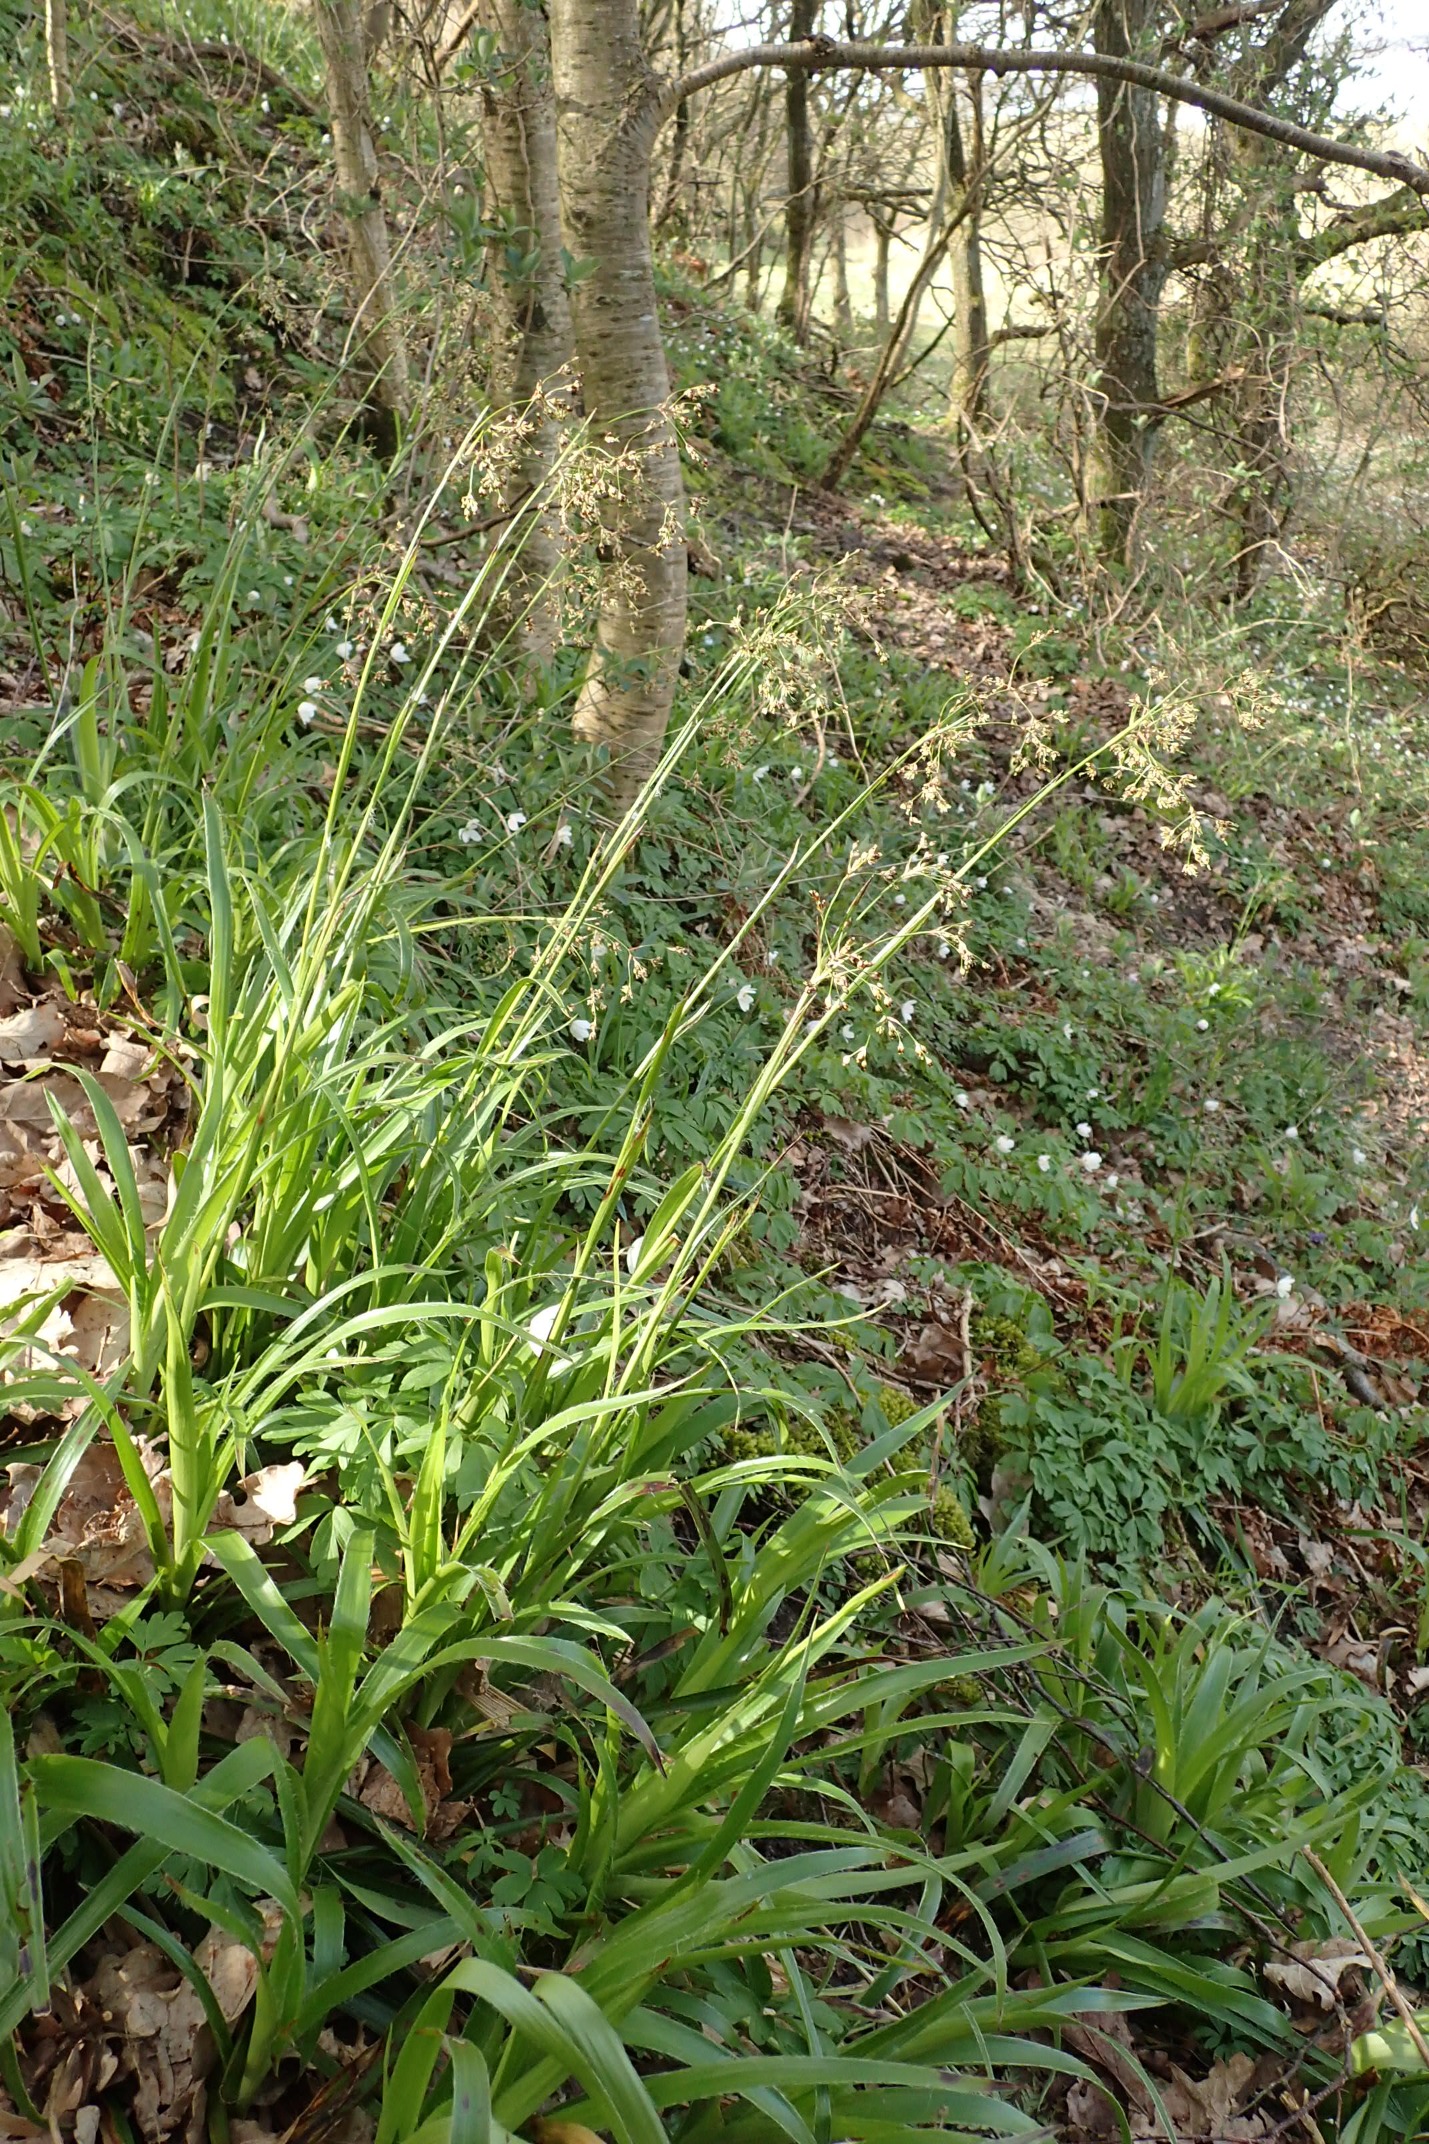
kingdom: Plantae
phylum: Tracheophyta
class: Liliopsida
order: Poales
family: Juncaceae
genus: Luzula
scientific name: Luzula sylvatica
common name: Stor frytle
